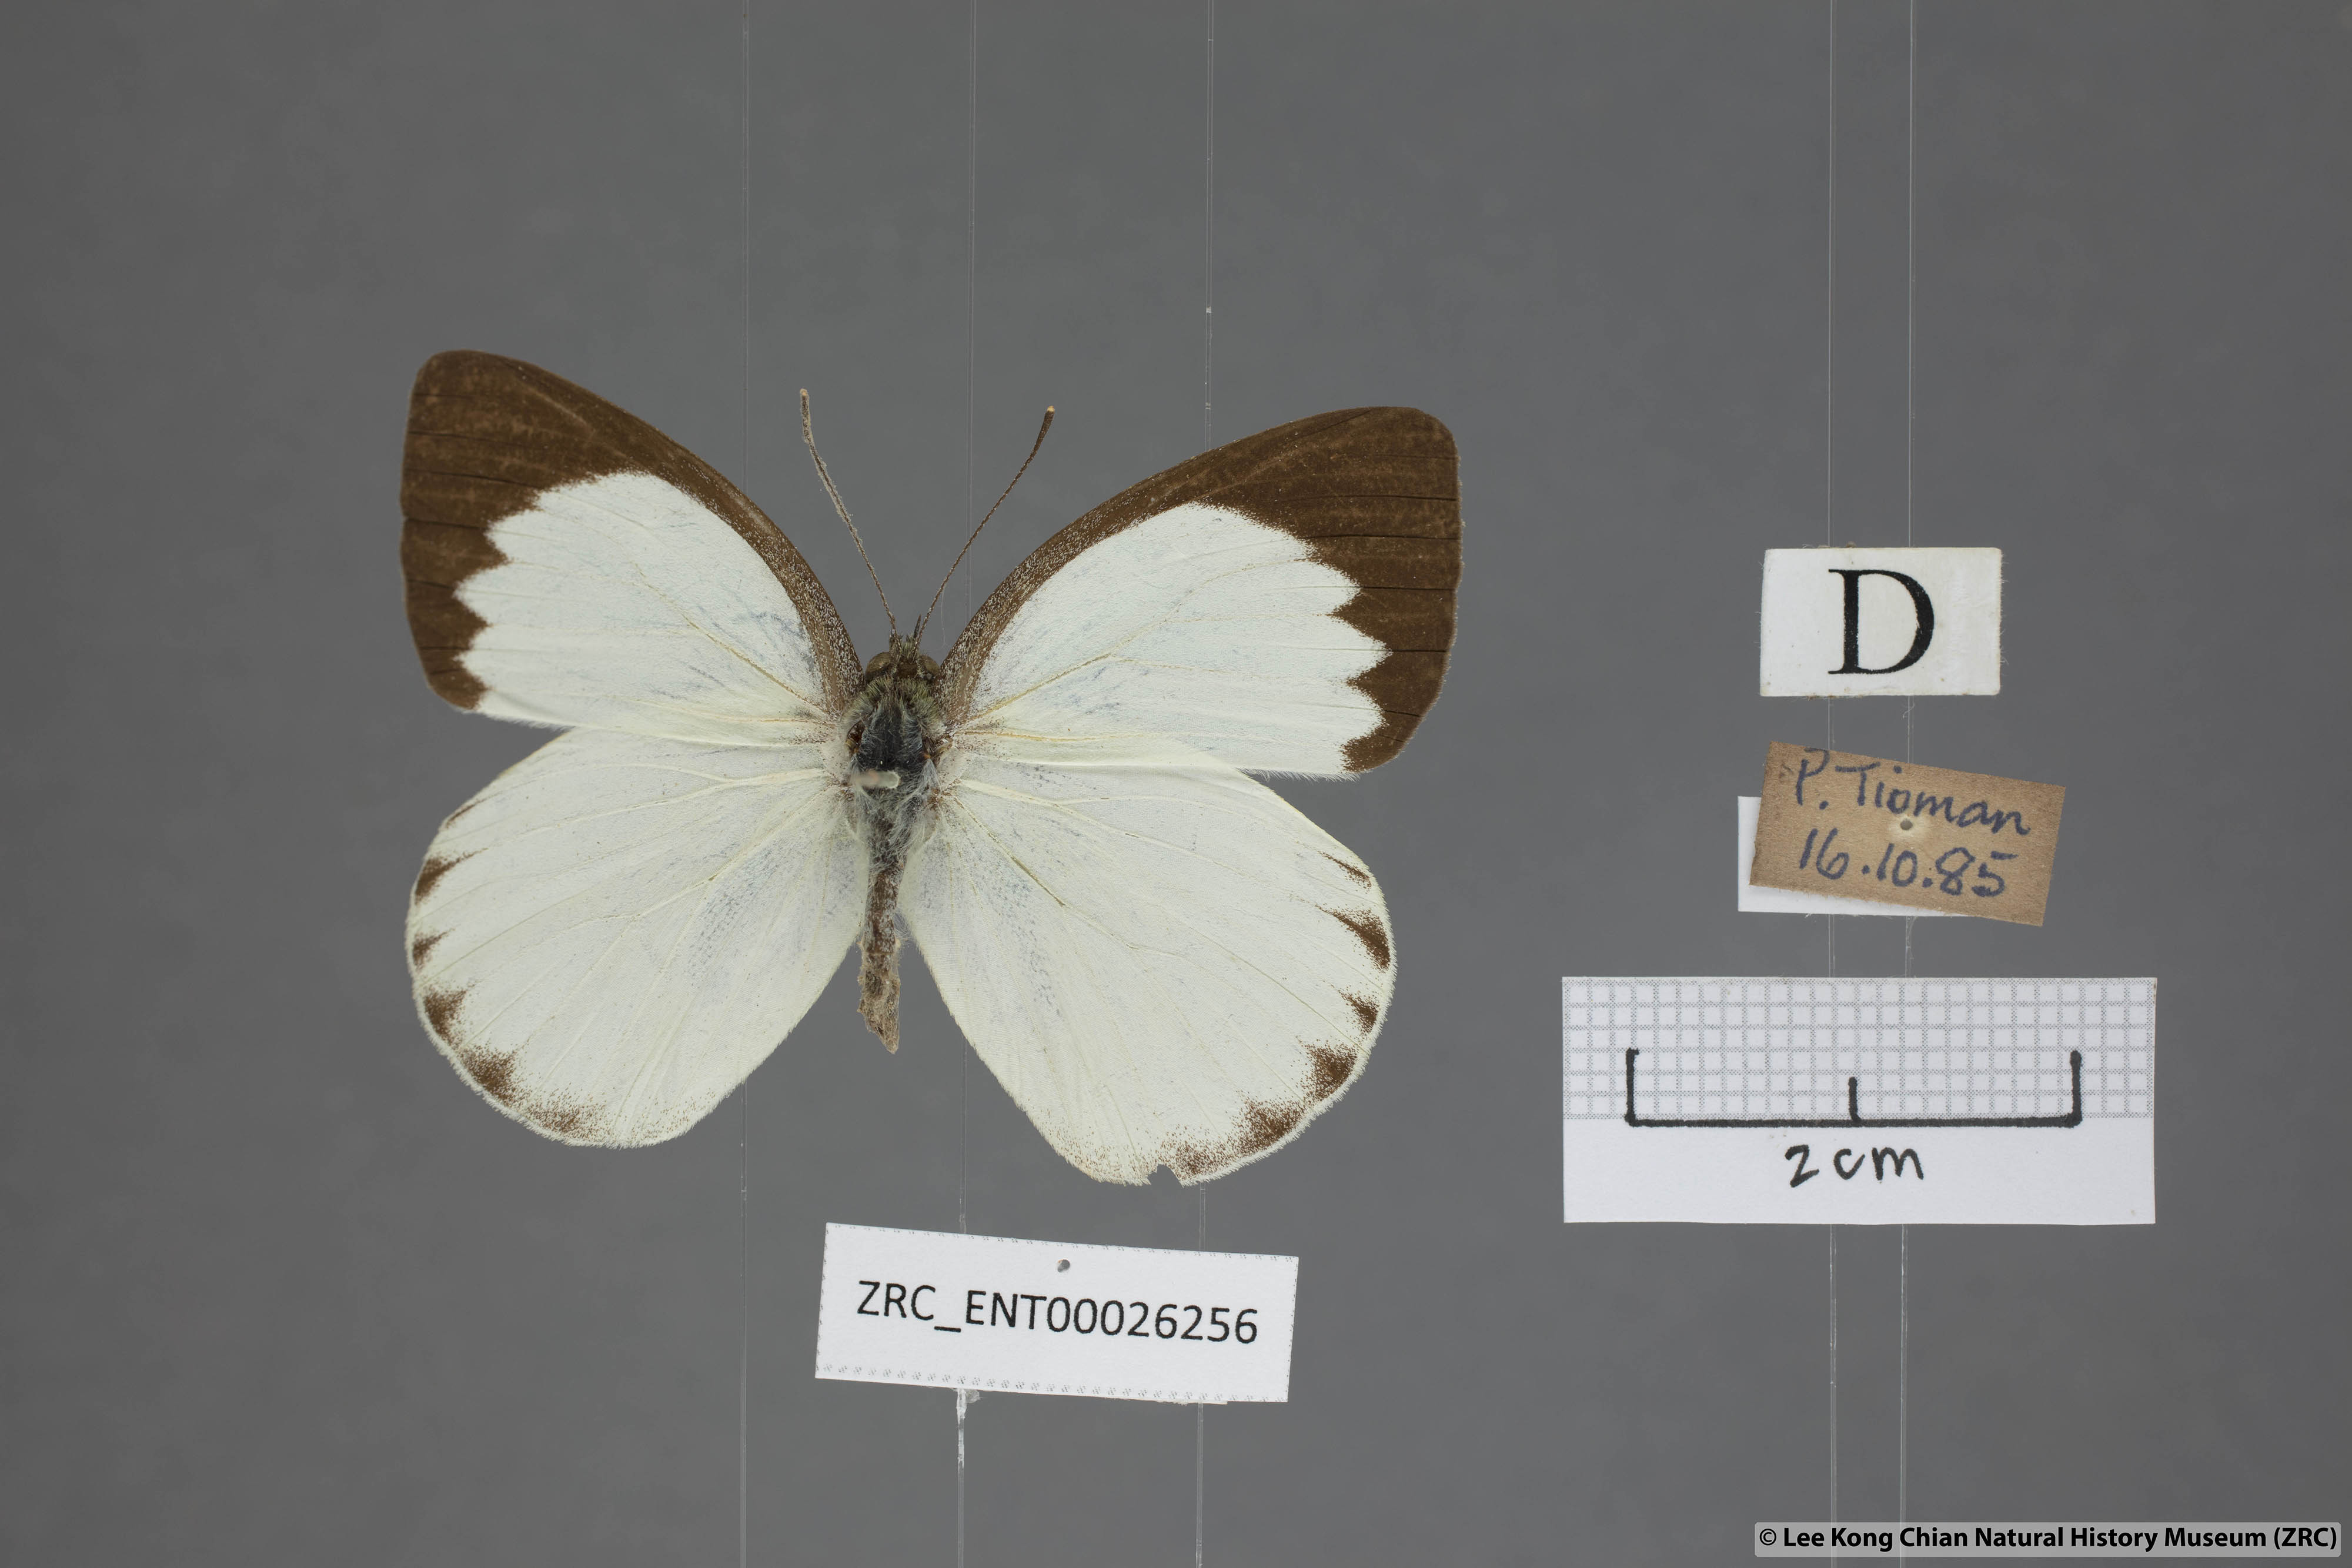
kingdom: Animalia
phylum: Arthropoda
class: Insecta
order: Lepidoptera
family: Pieridae
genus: Phrissura
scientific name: Phrissura aegis
